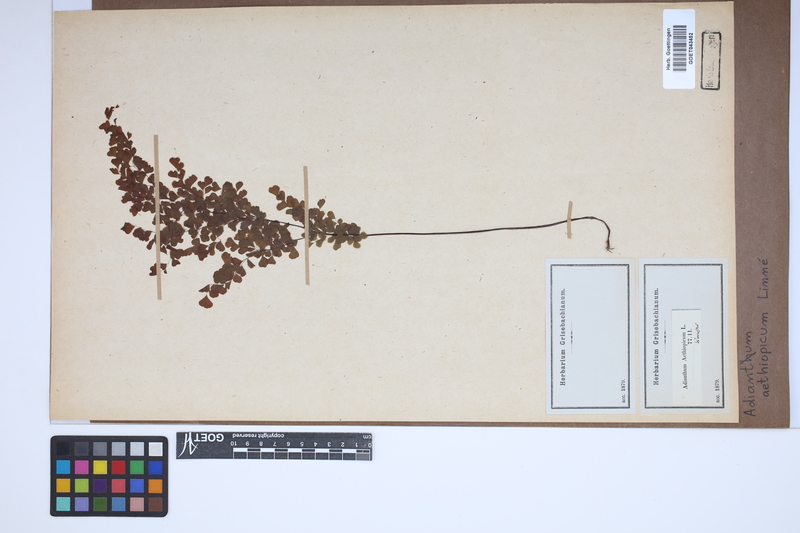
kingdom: Plantae
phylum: Tracheophyta
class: Polypodiopsida
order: Polypodiales
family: Pteridaceae
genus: Adiantum
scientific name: Adiantum aethiopicum
